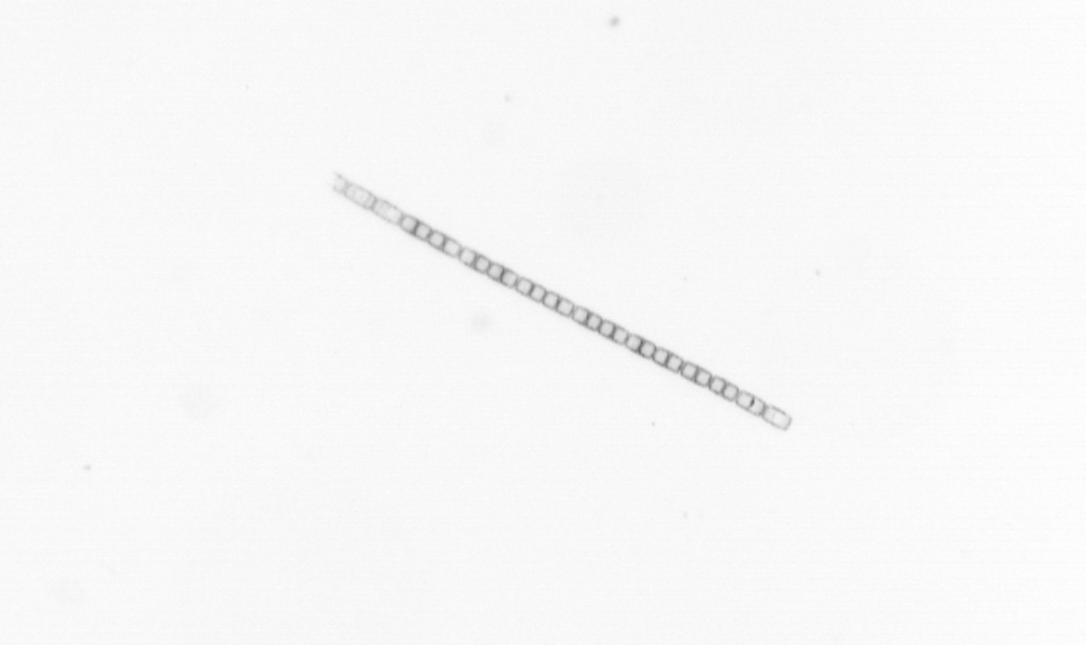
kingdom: Chromista
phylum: Ochrophyta
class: Bacillariophyceae
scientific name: Bacillariophyceae
